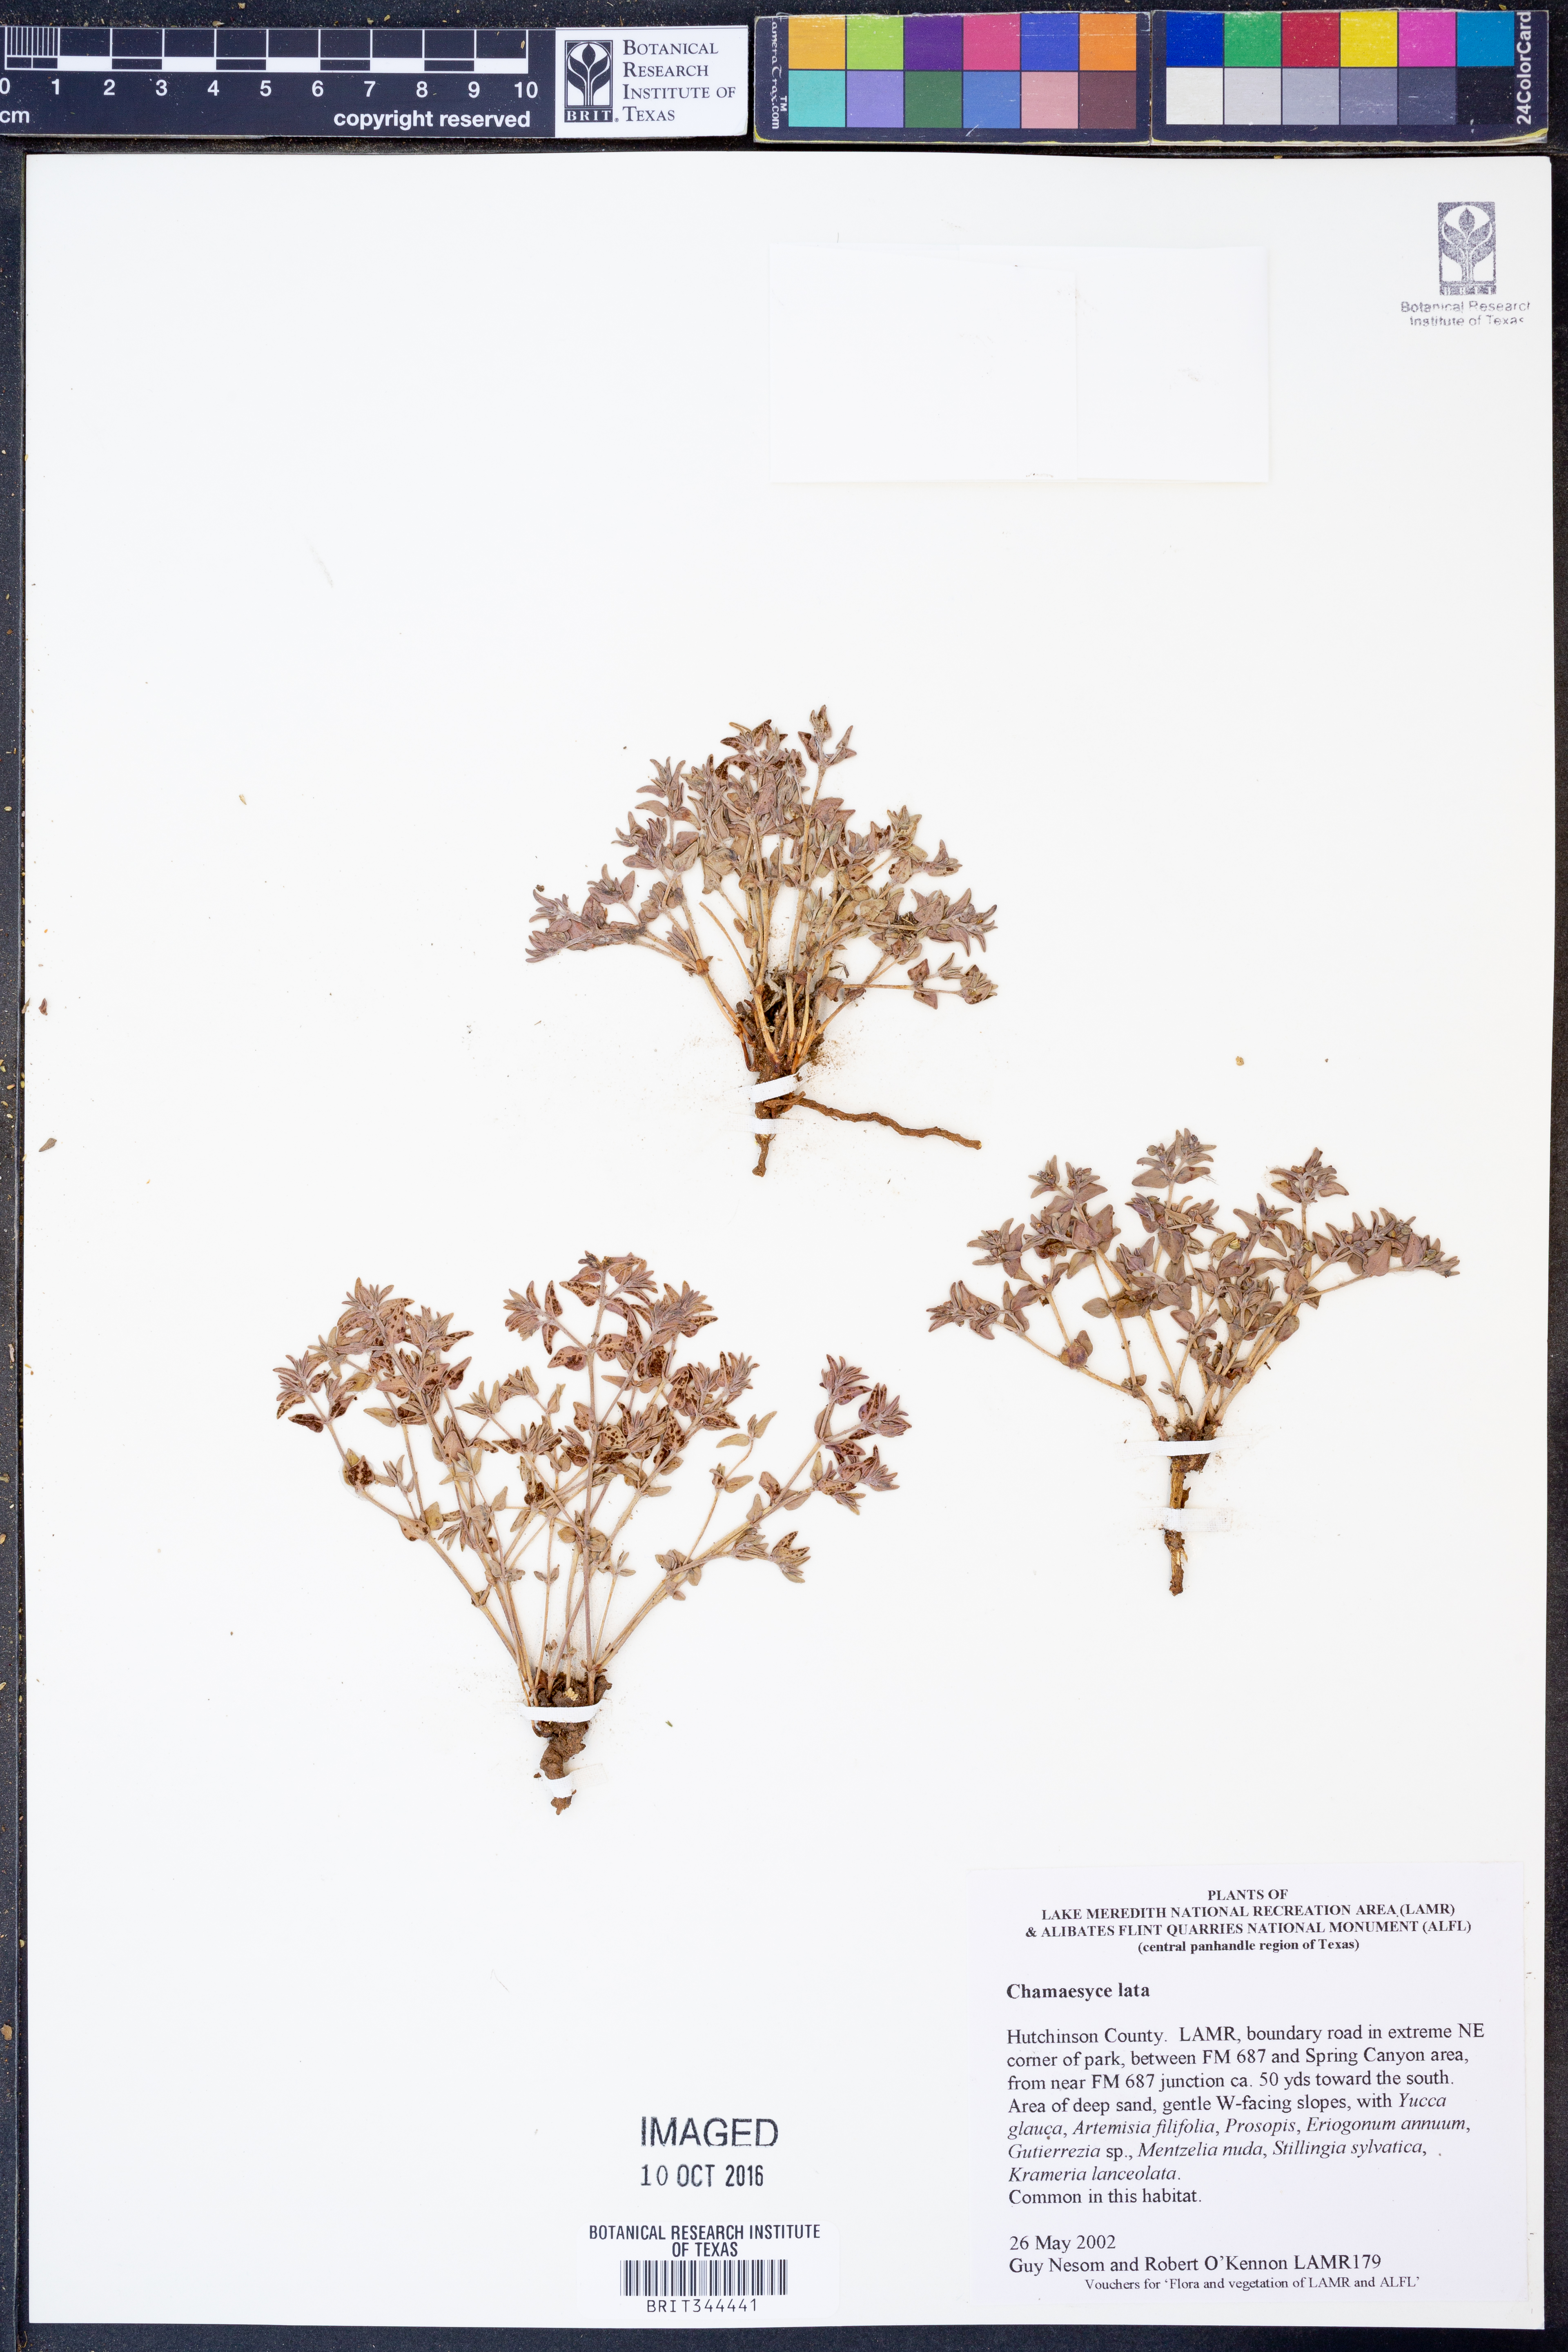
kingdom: Plantae
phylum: Tracheophyta
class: Magnoliopsida
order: Malpighiales
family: Euphorbiaceae
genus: Euphorbia
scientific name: Euphorbia lata
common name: Hoary euphorbia
